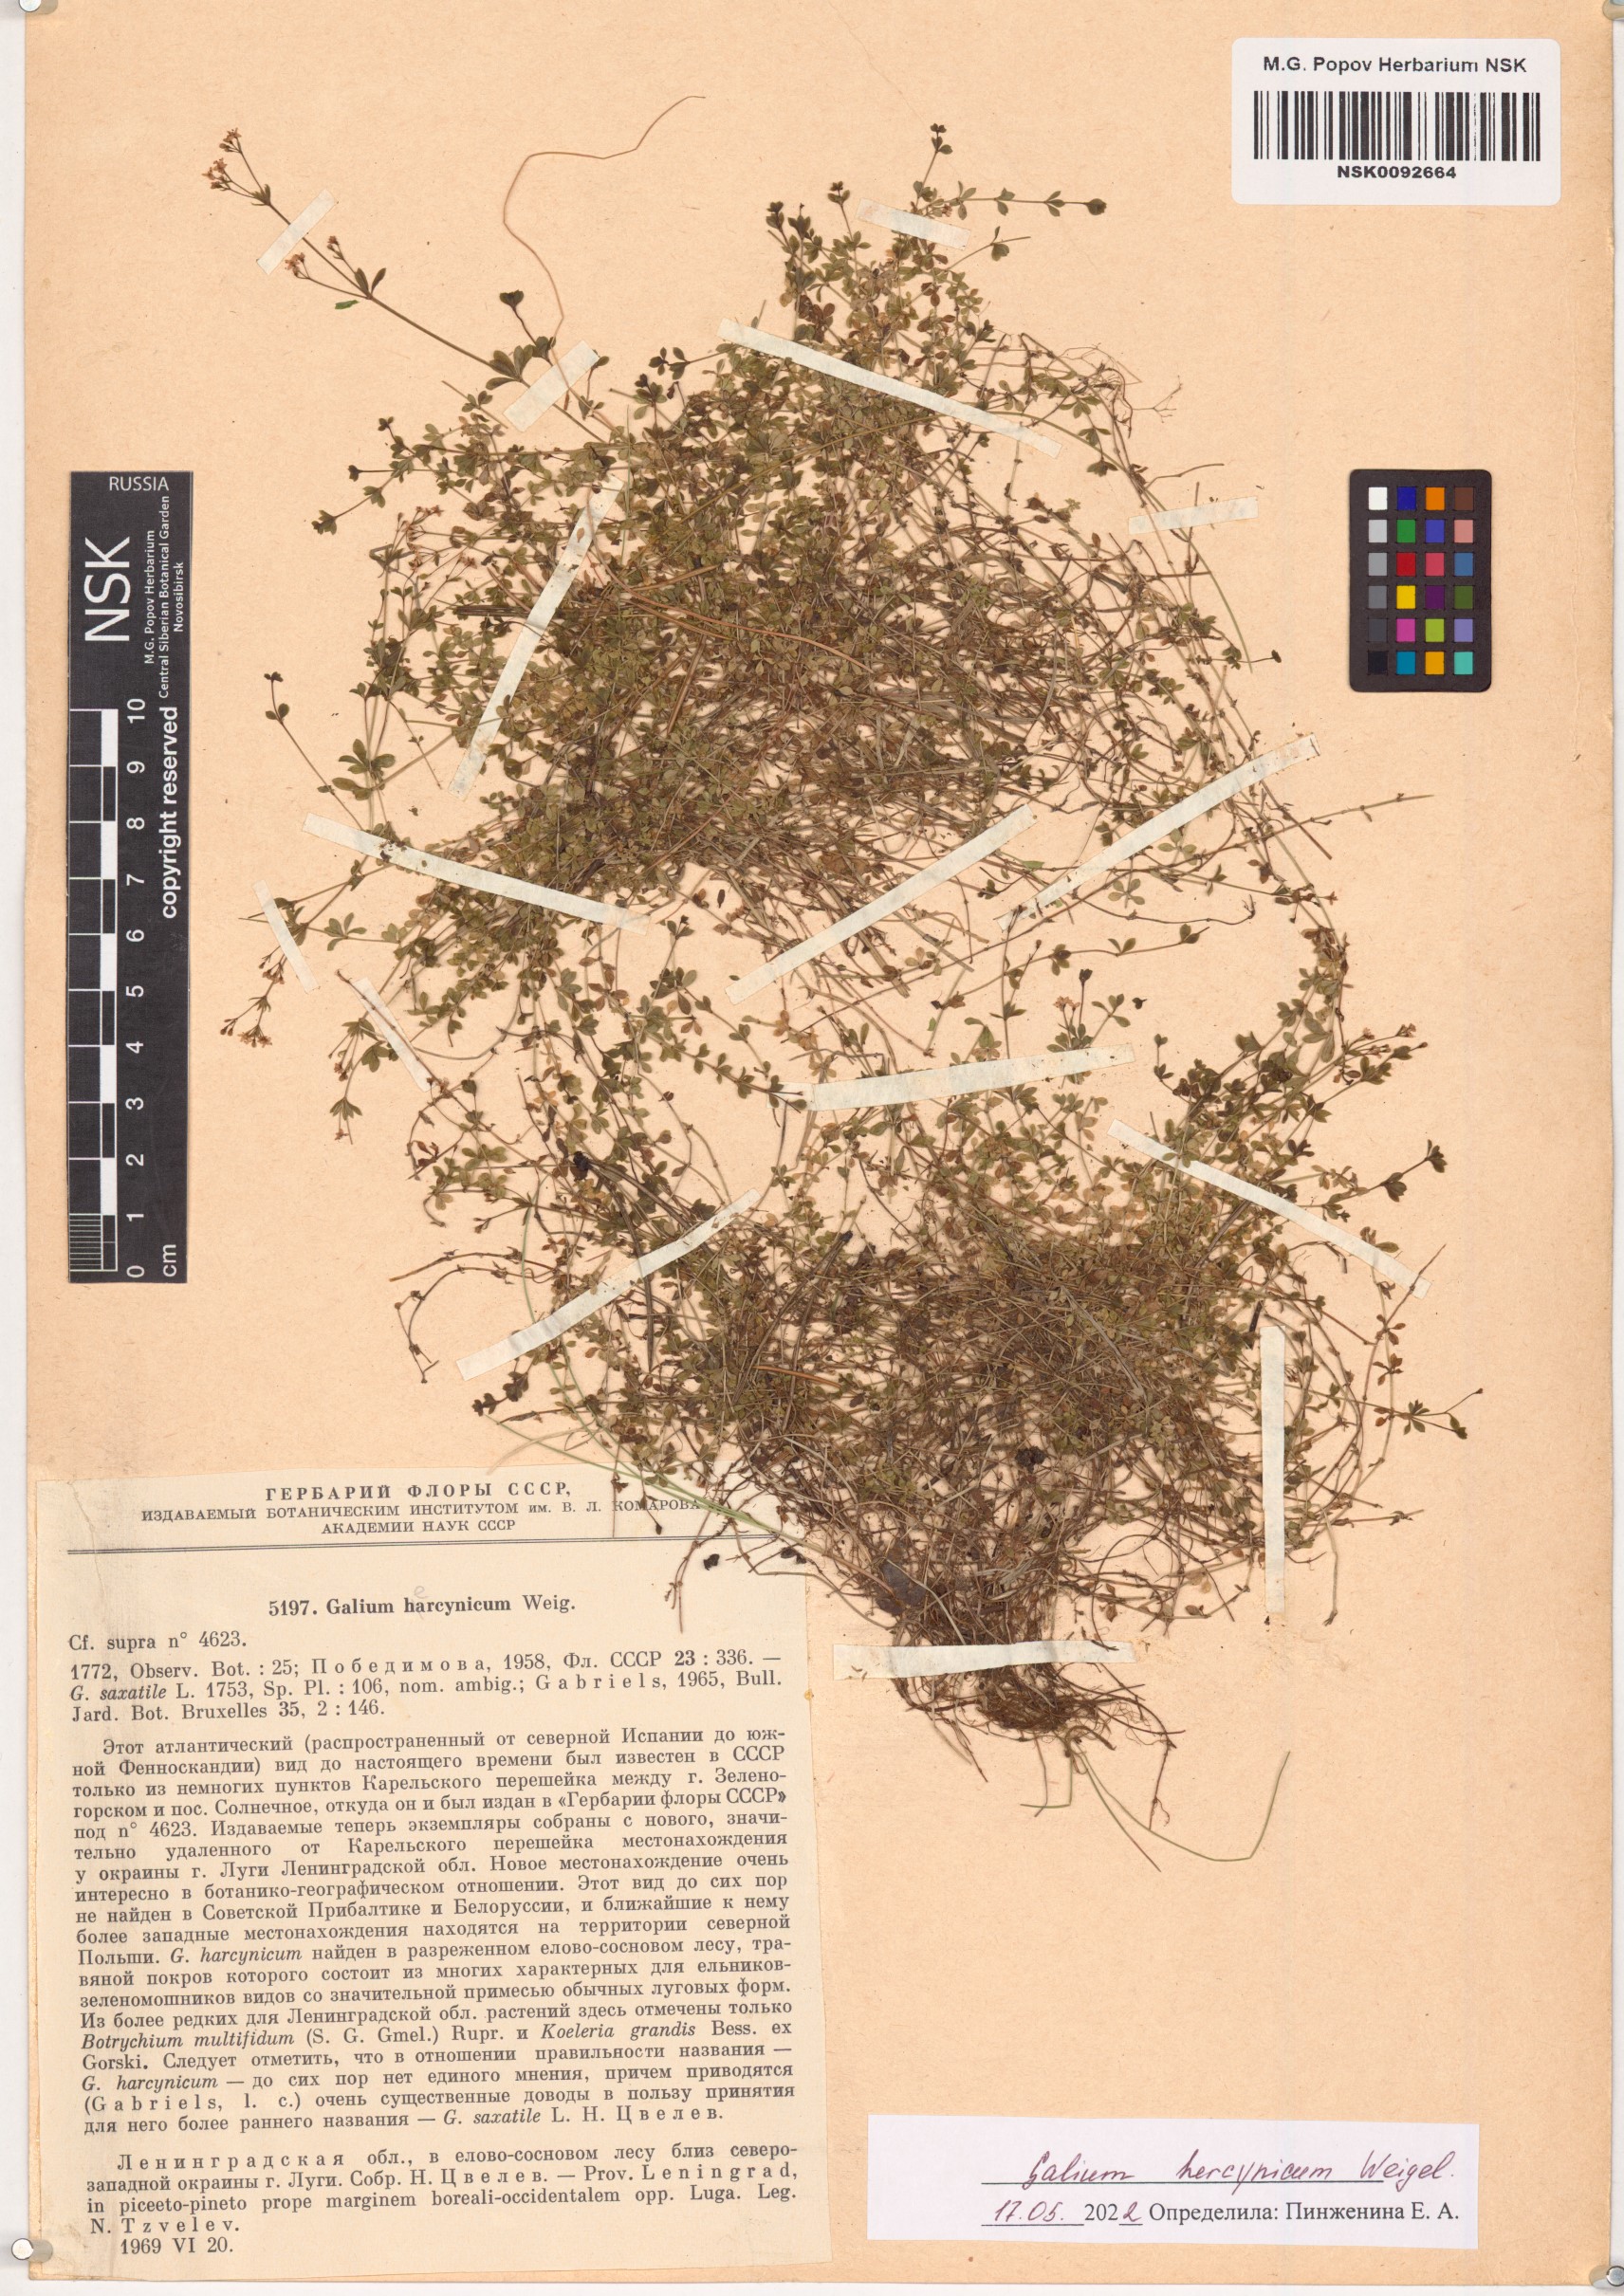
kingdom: Plantae
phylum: Tracheophyta
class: Magnoliopsida
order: Gentianales
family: Rubiaceae
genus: Galium
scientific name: Galium saxatile
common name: Heath bedstraw
